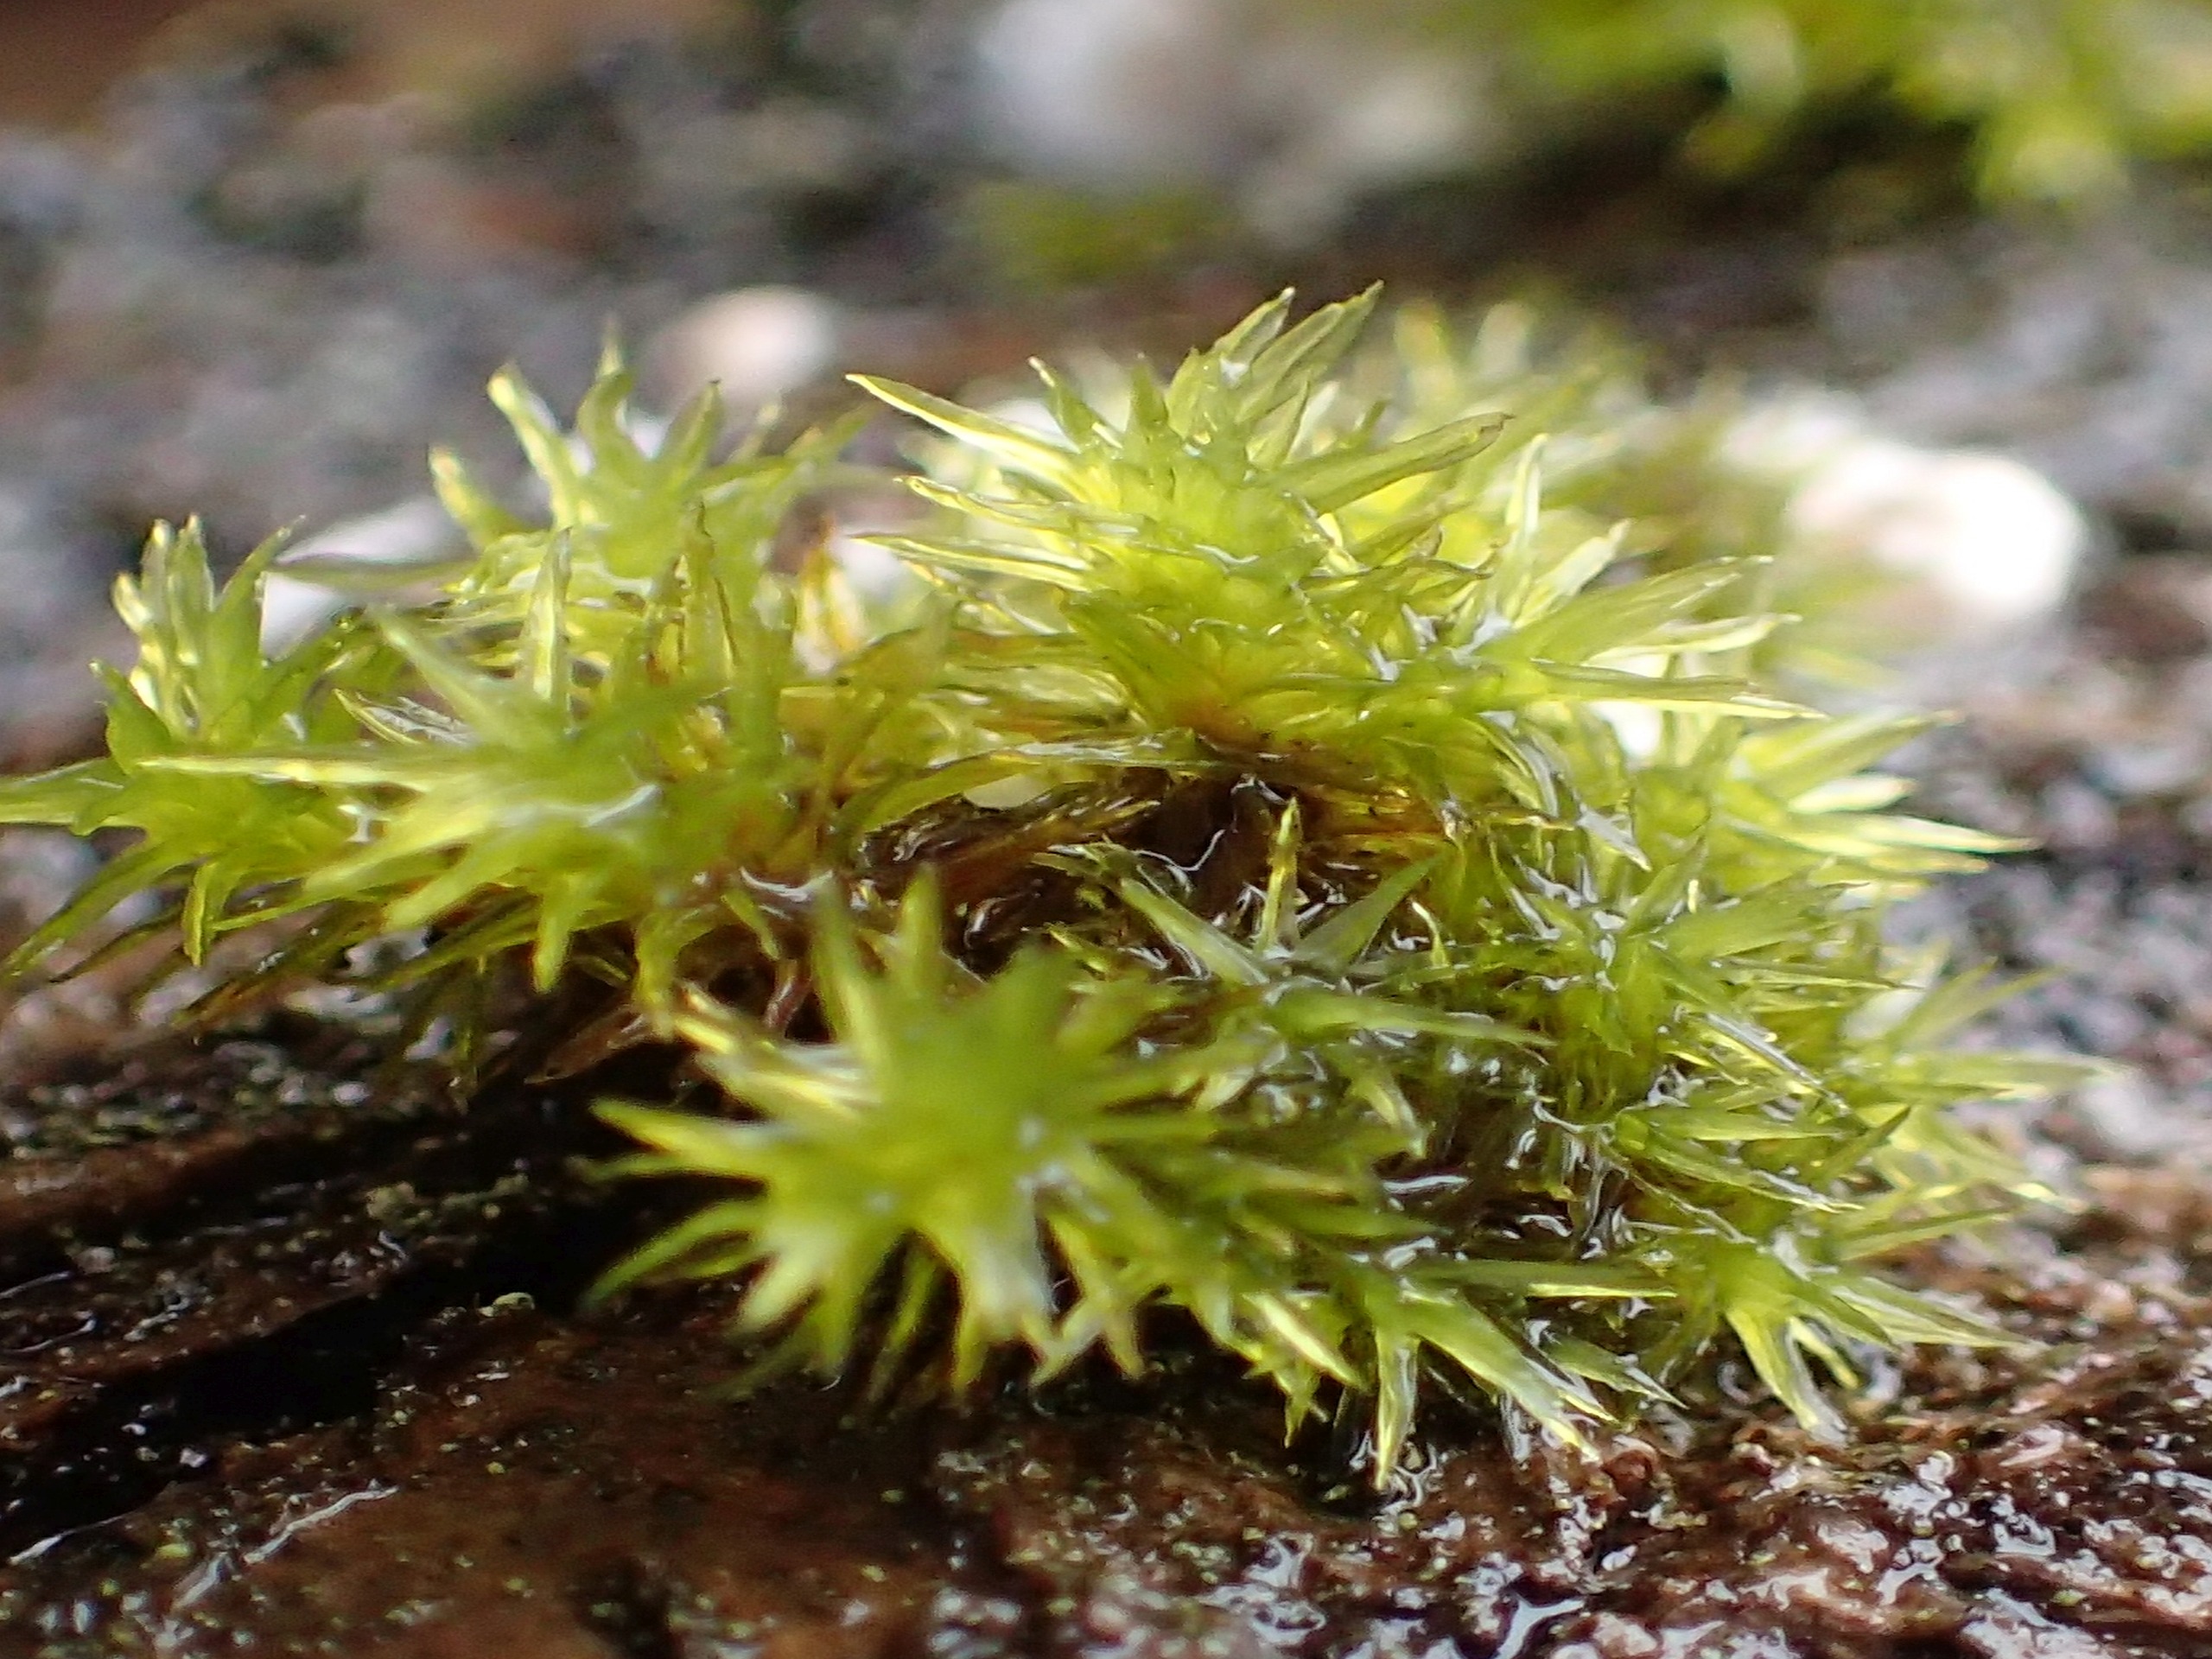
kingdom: Plantae
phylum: Bryophyta
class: Bryopsida
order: Orthotrichales
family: Orthotrichaceae
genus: Orthotrichum
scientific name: Orthotrichum
